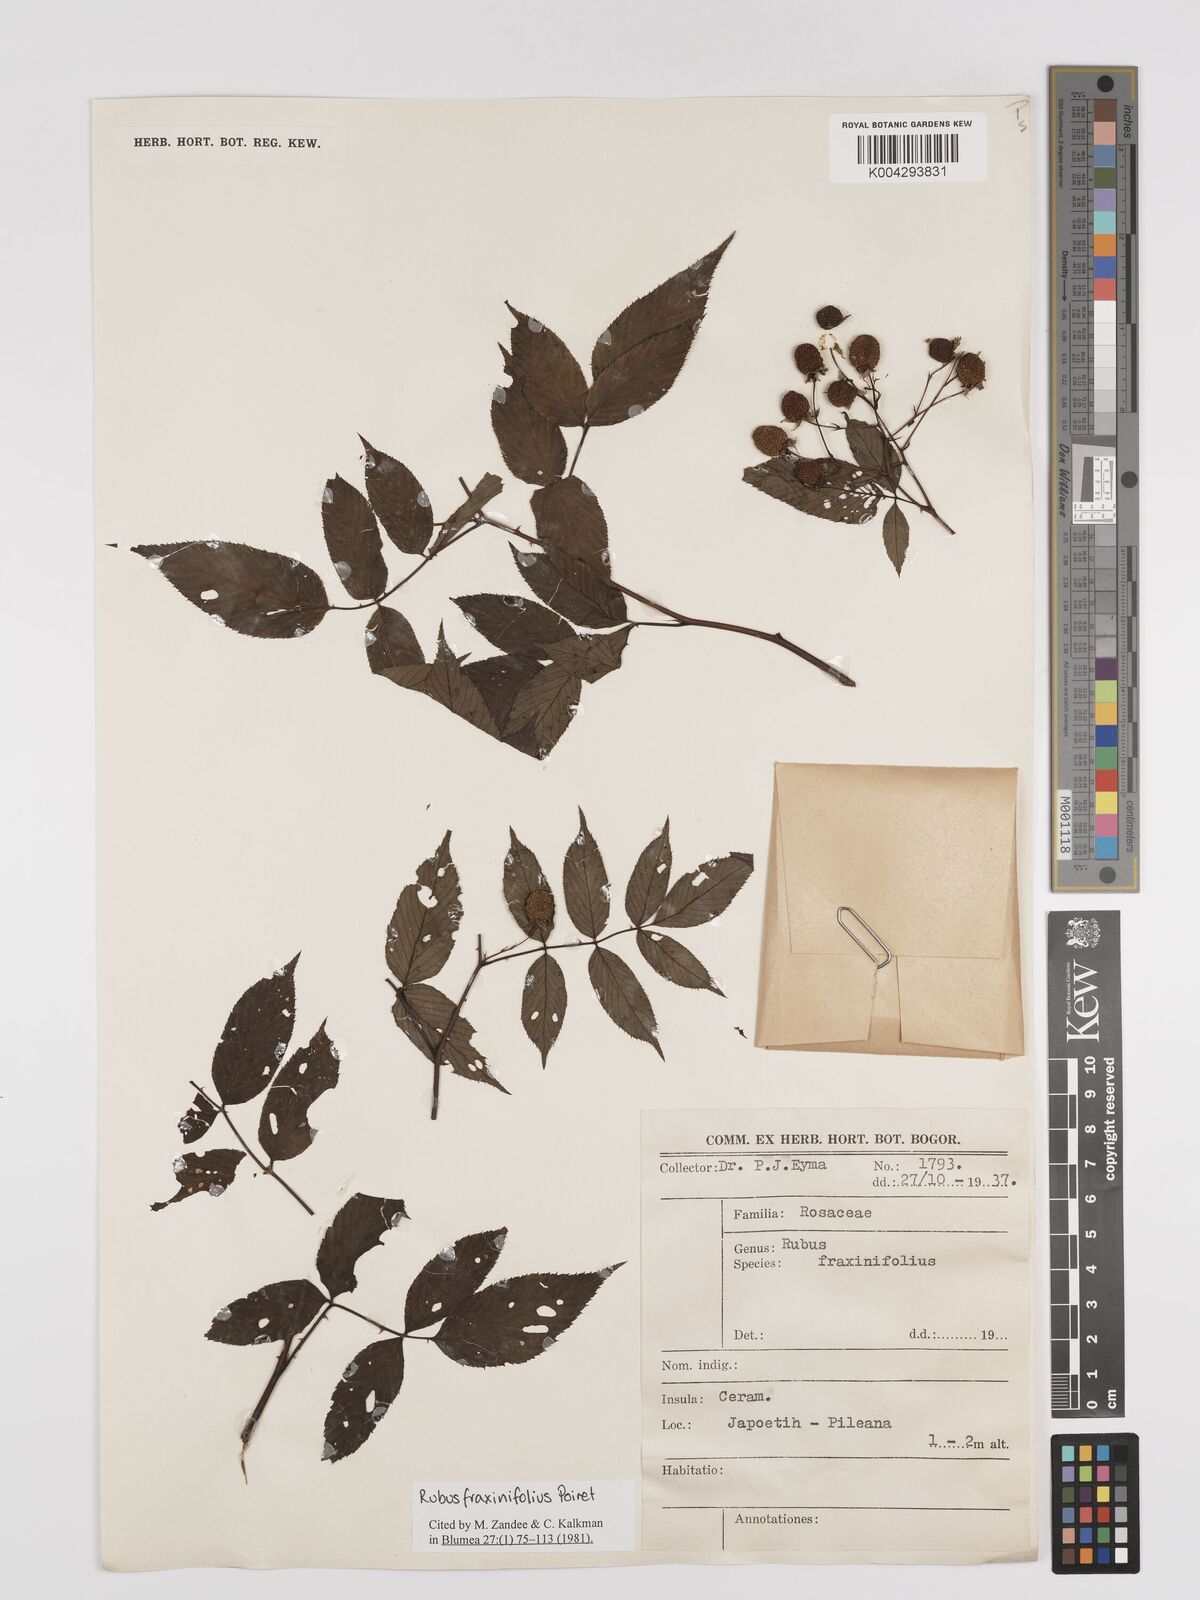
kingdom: Plantae
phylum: Tracheophyta
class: Magnoliopsida
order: Rosales
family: Rosaceae
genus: Rubus
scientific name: Rubus fraxinifolius
